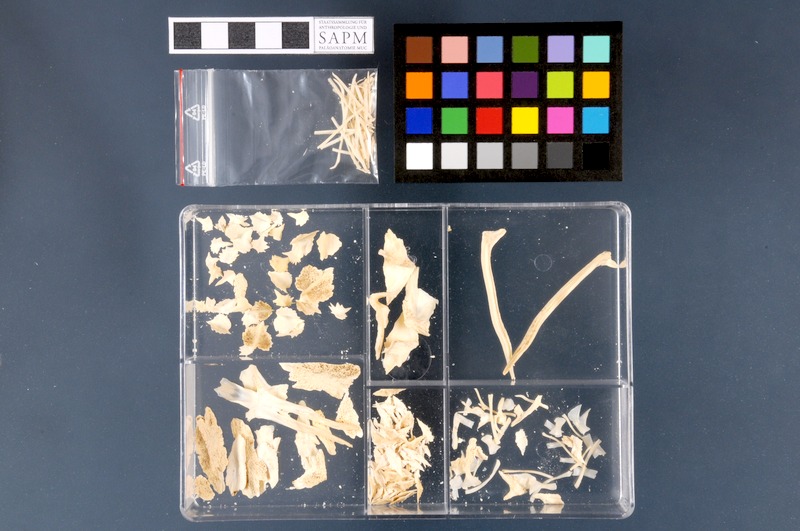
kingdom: Animalia
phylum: Chordata
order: Acipenseriformes
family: Acipenseridae
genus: Acipenser
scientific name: Acipenser ruthenus
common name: Sterlet
